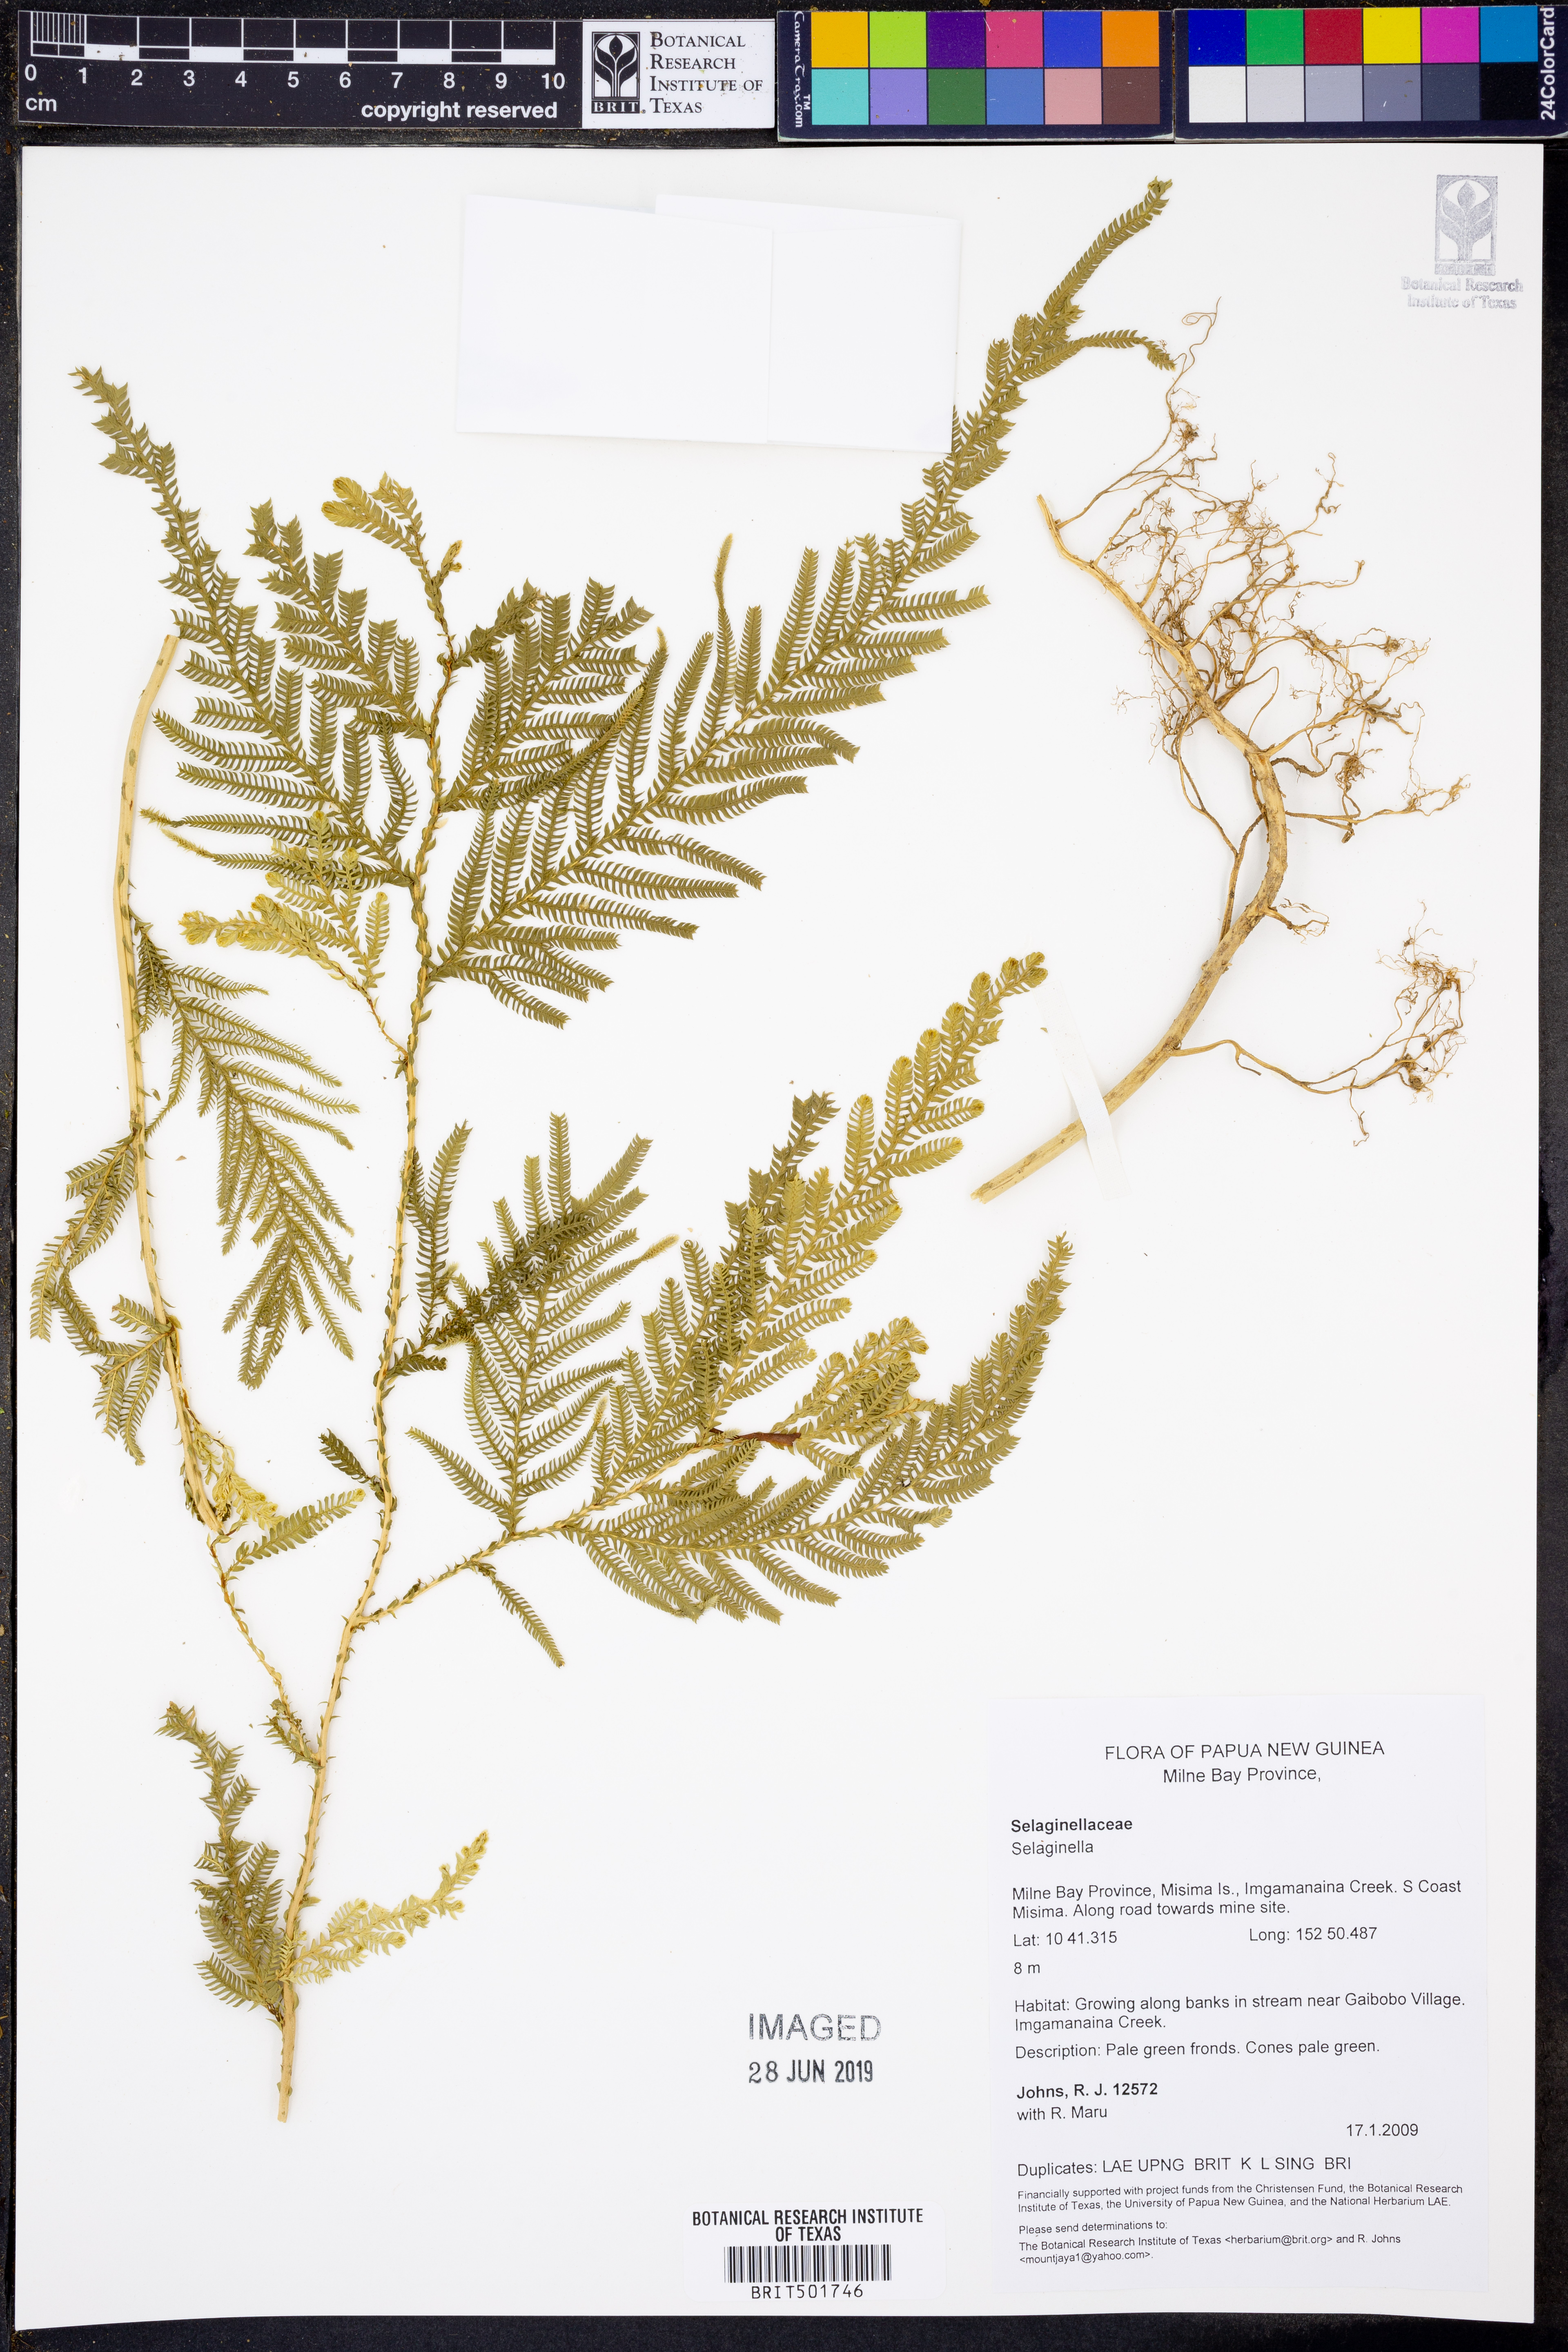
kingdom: Plantae
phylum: Tracheophyta
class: Lycopodiopsida
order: Selaginellales
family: Selaginellaceae
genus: Selaginella
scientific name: Selaginella
